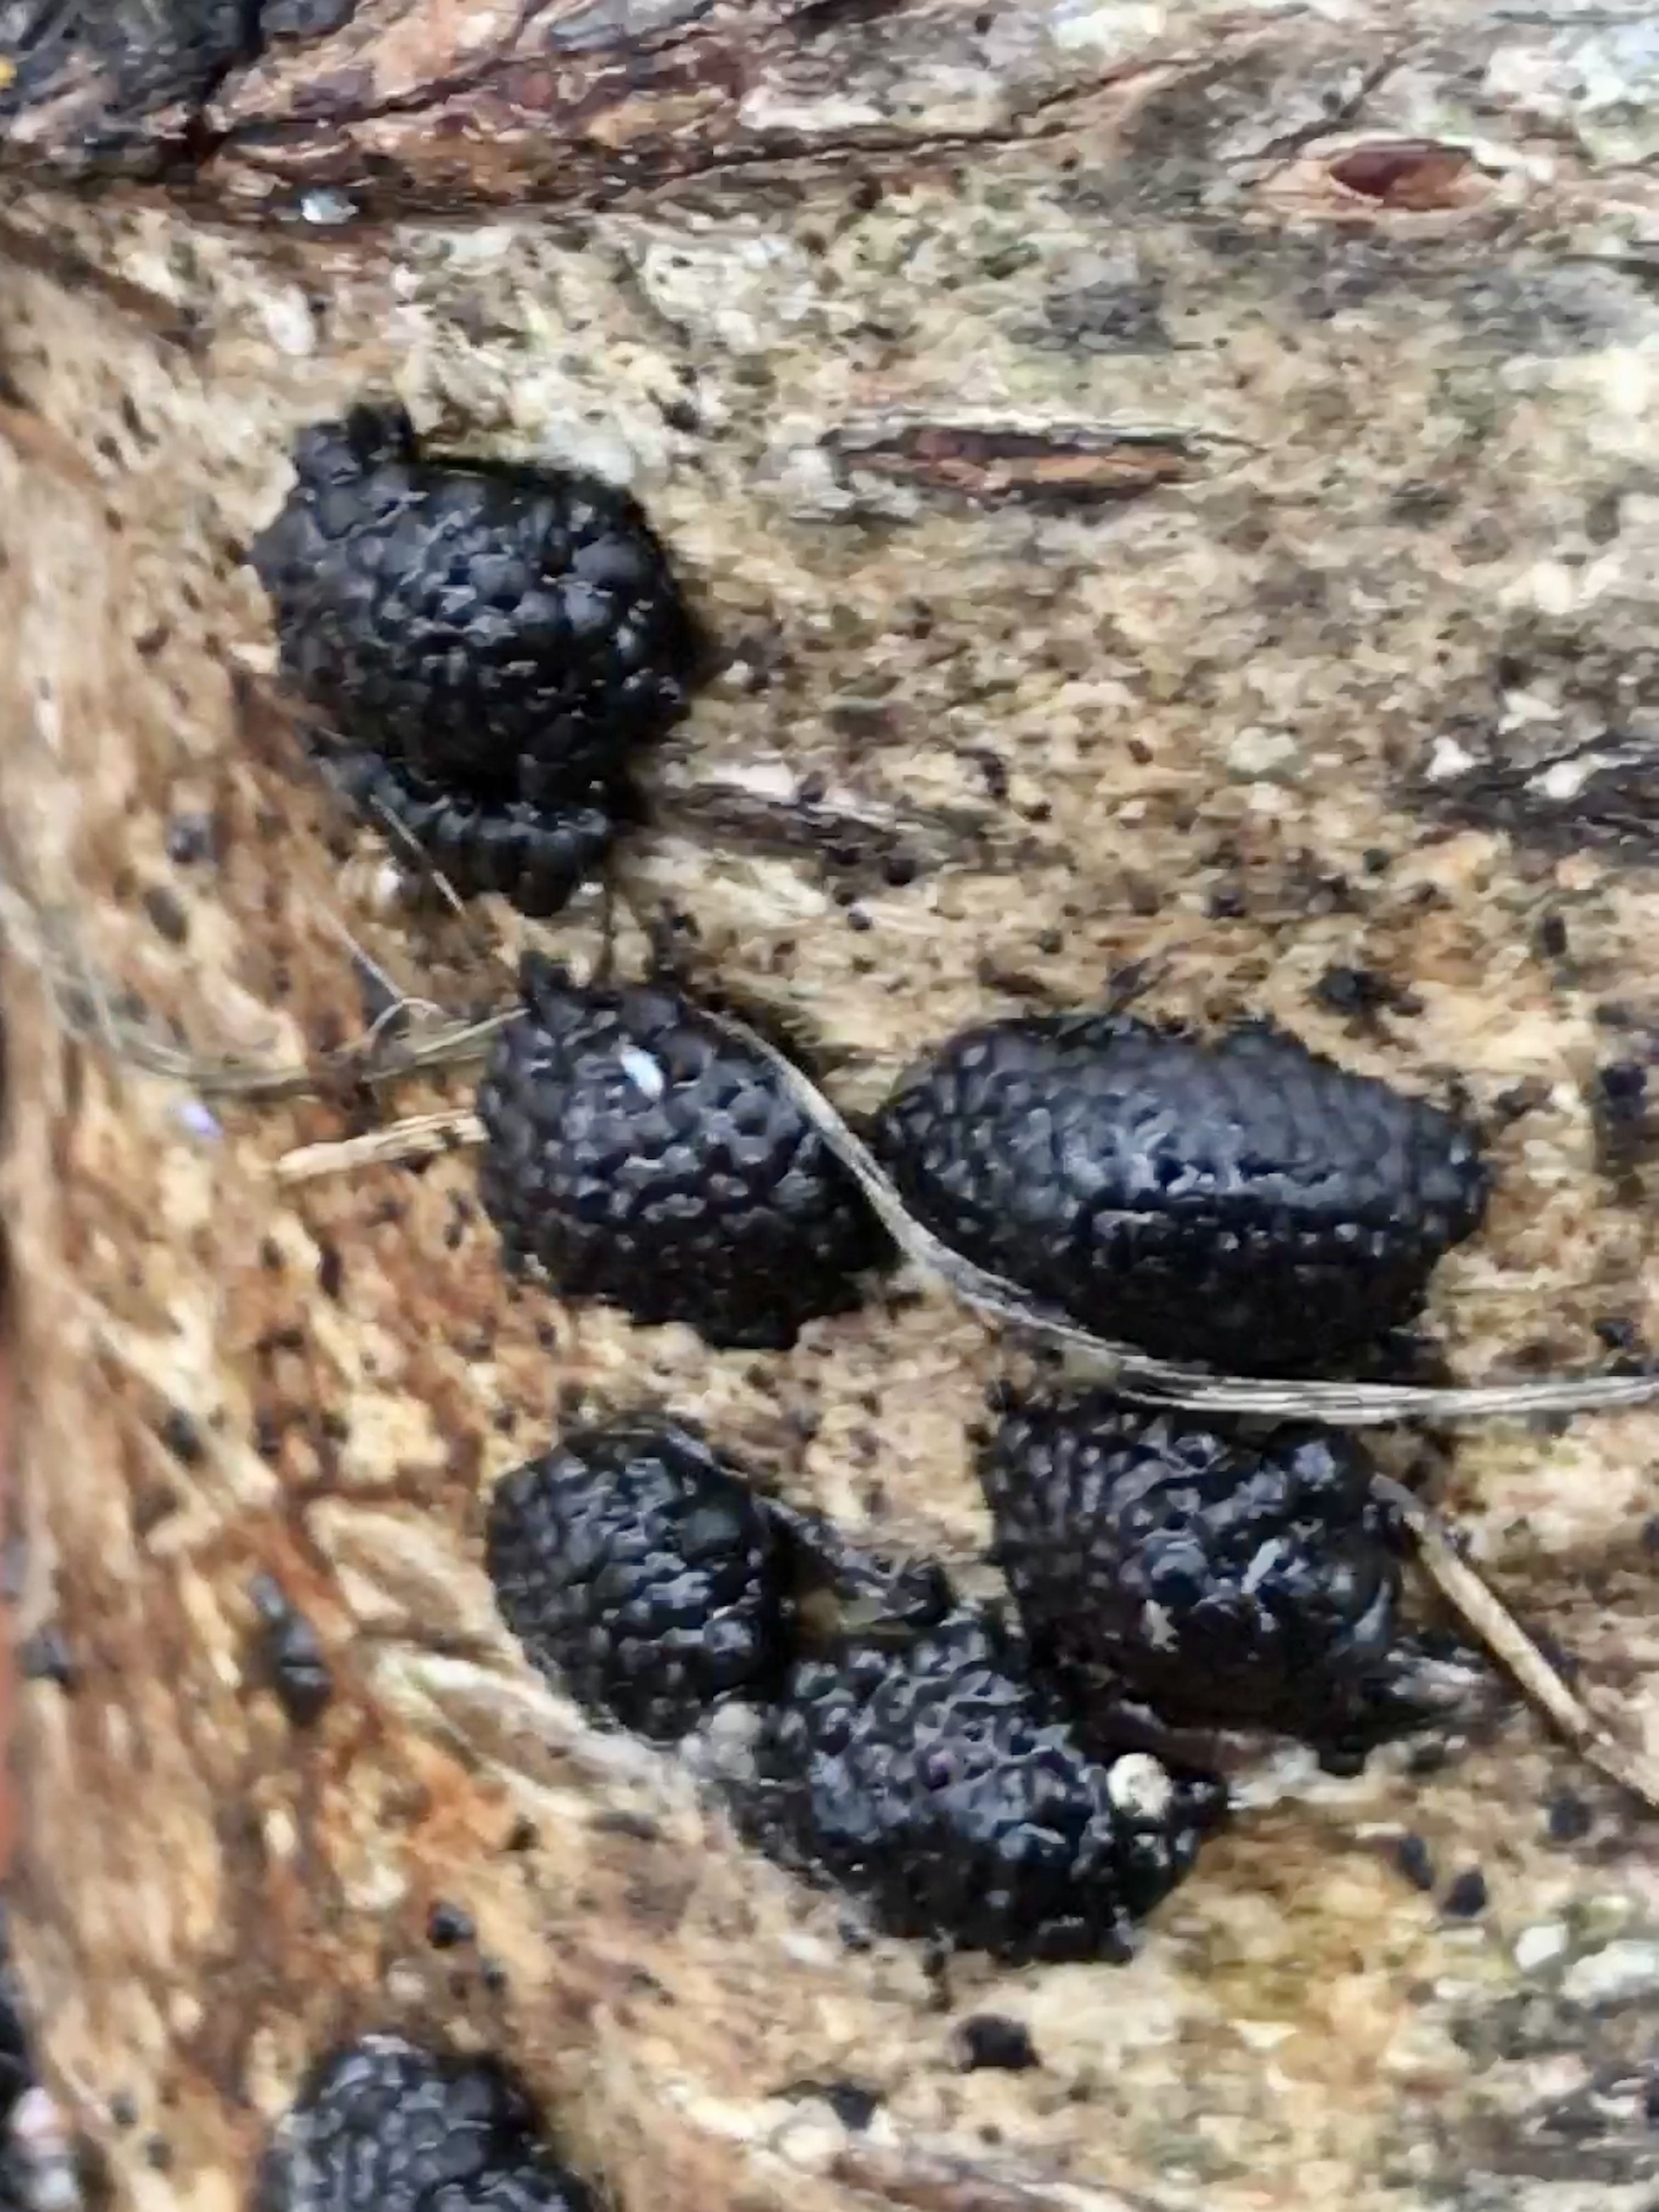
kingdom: Fungi
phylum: Ascomycota
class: Sordariomycetes
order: Xylariales
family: Hypoxylaceae
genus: Jackrogersella
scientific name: Jackrogersella multiformis
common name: foranderlig kulbær
